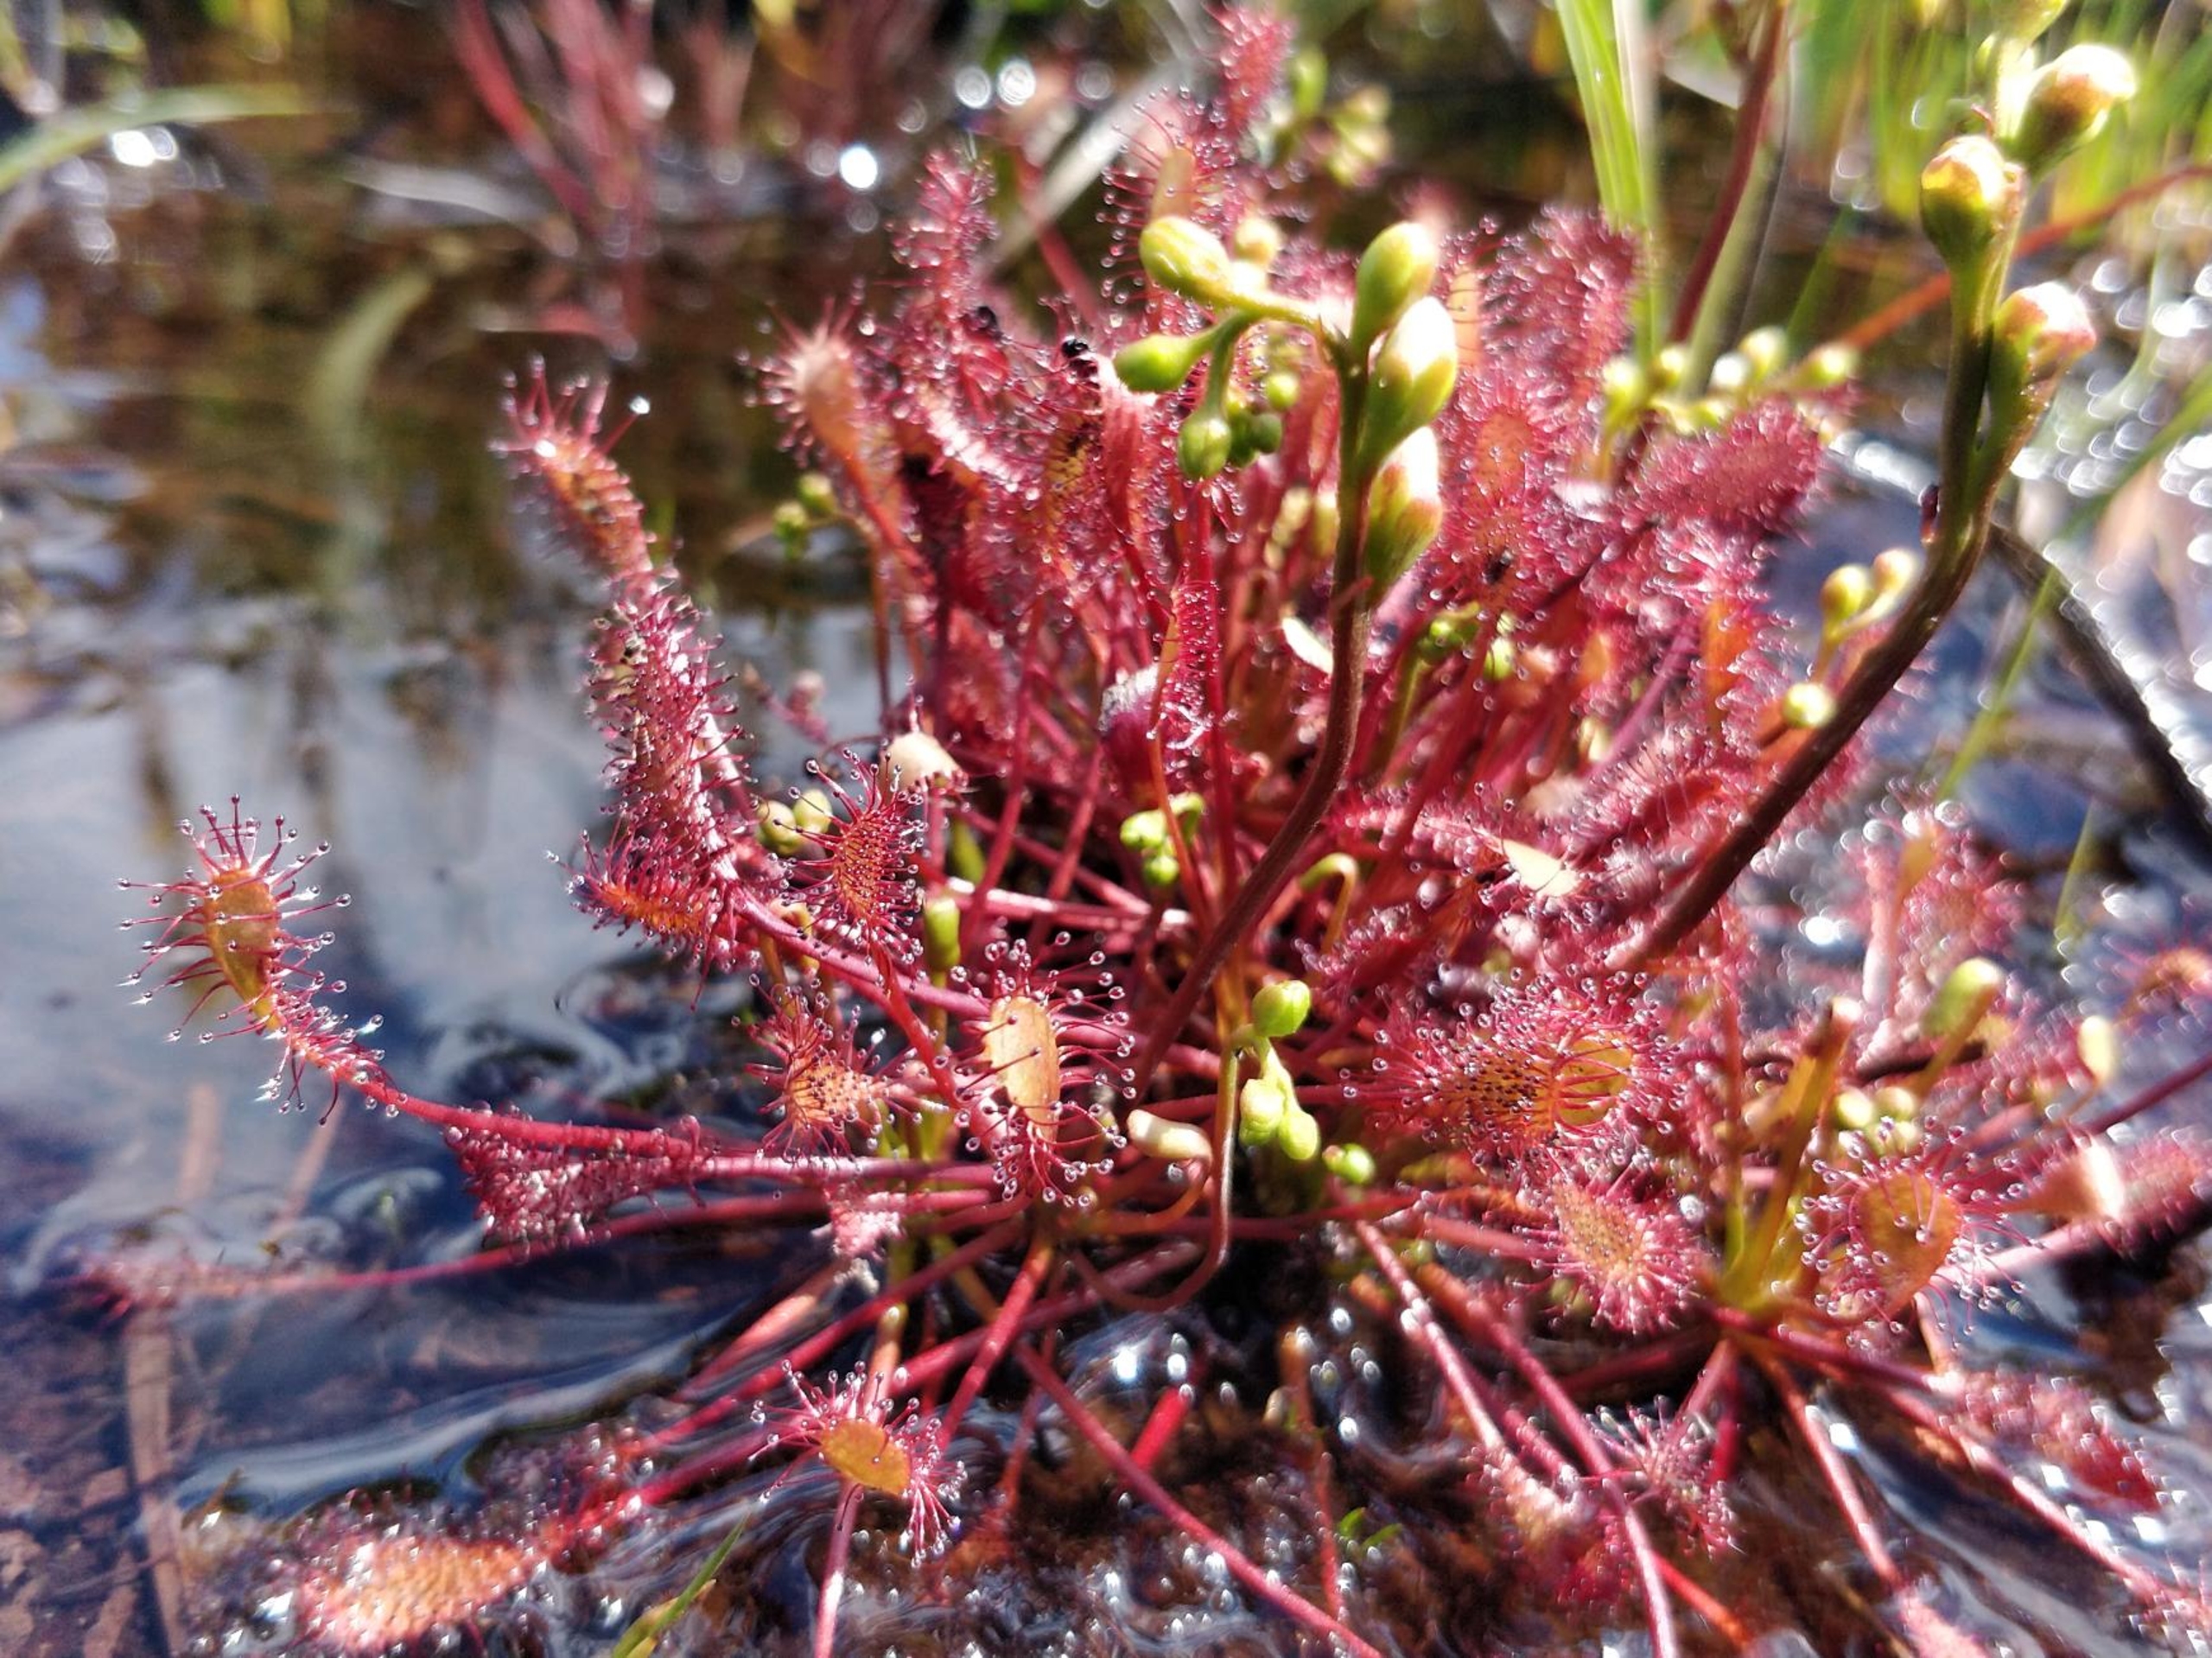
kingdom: Plantae
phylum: Tracheophyta
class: Magnoliopsida
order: Caryophyllales
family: Droseraceae
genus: Drosera
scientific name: Drosera intermedia
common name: Liden soldug
